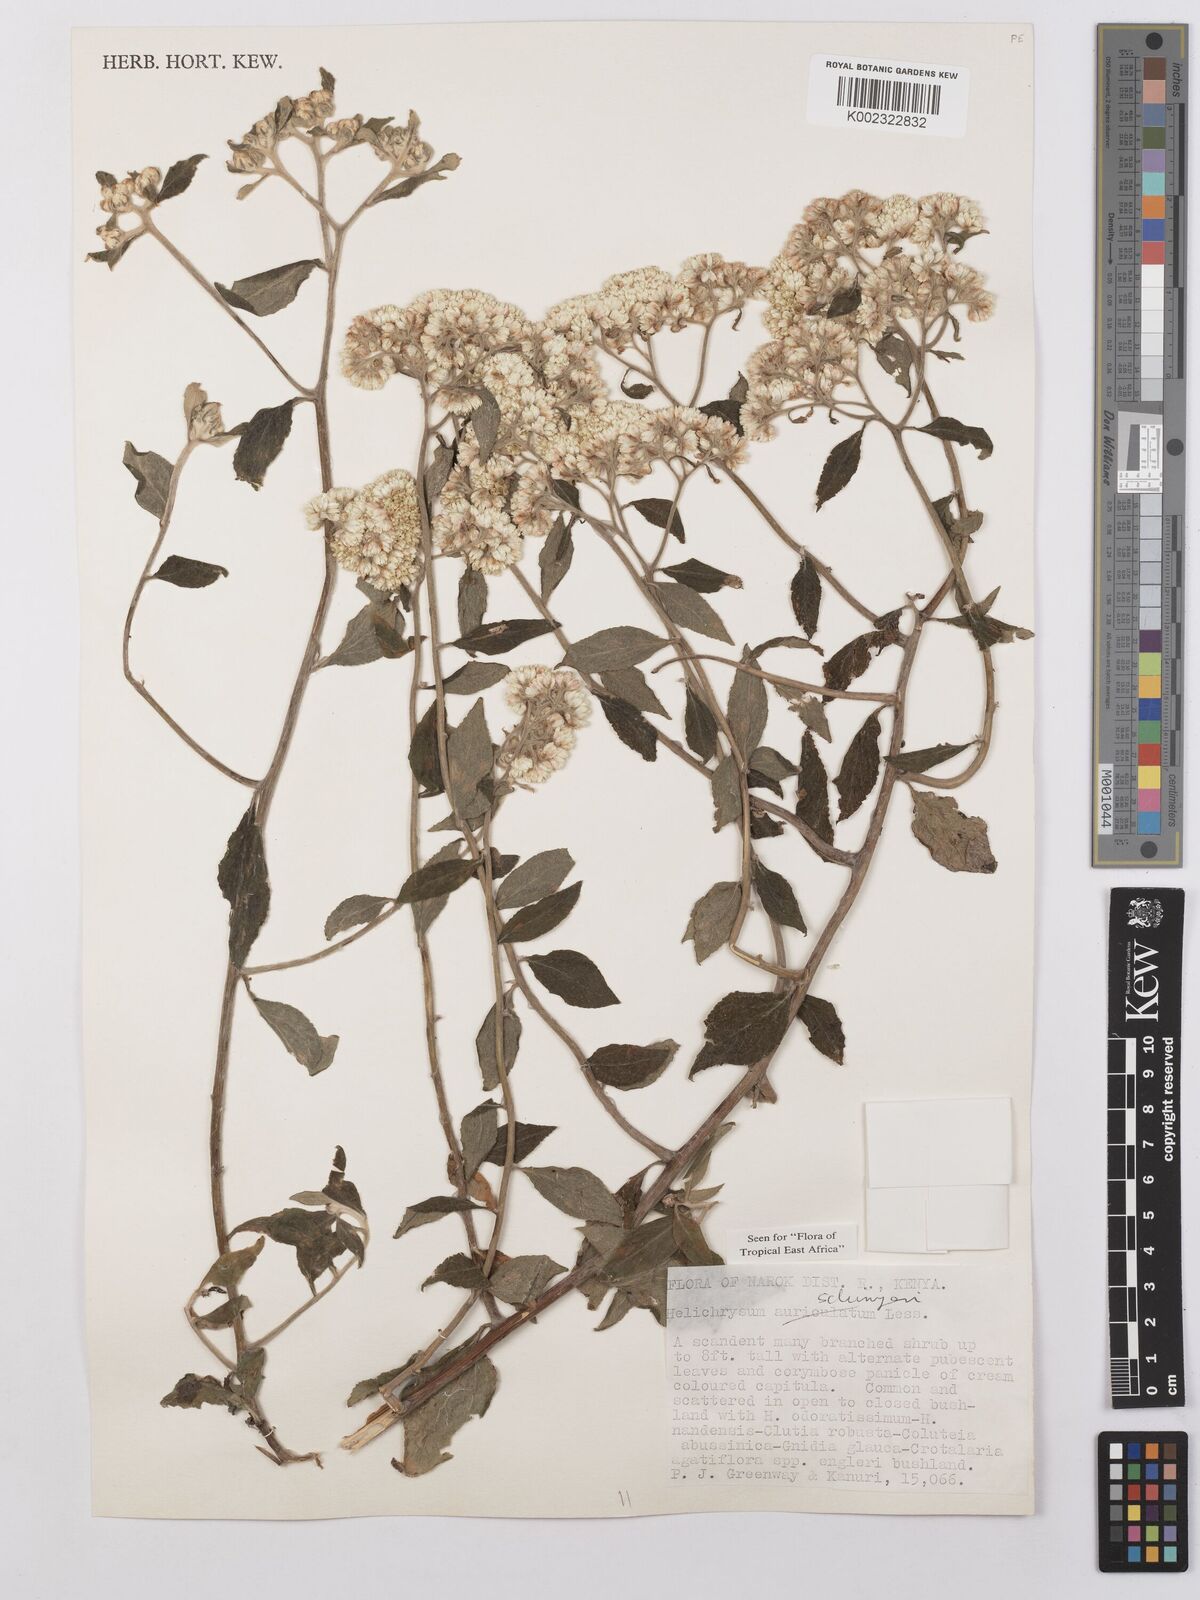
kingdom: Plantae
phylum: Tracheophyta
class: Magnoliopsida
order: Asterales
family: Asteraceae
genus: Helichrysum
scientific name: Helichrysum schimperi
